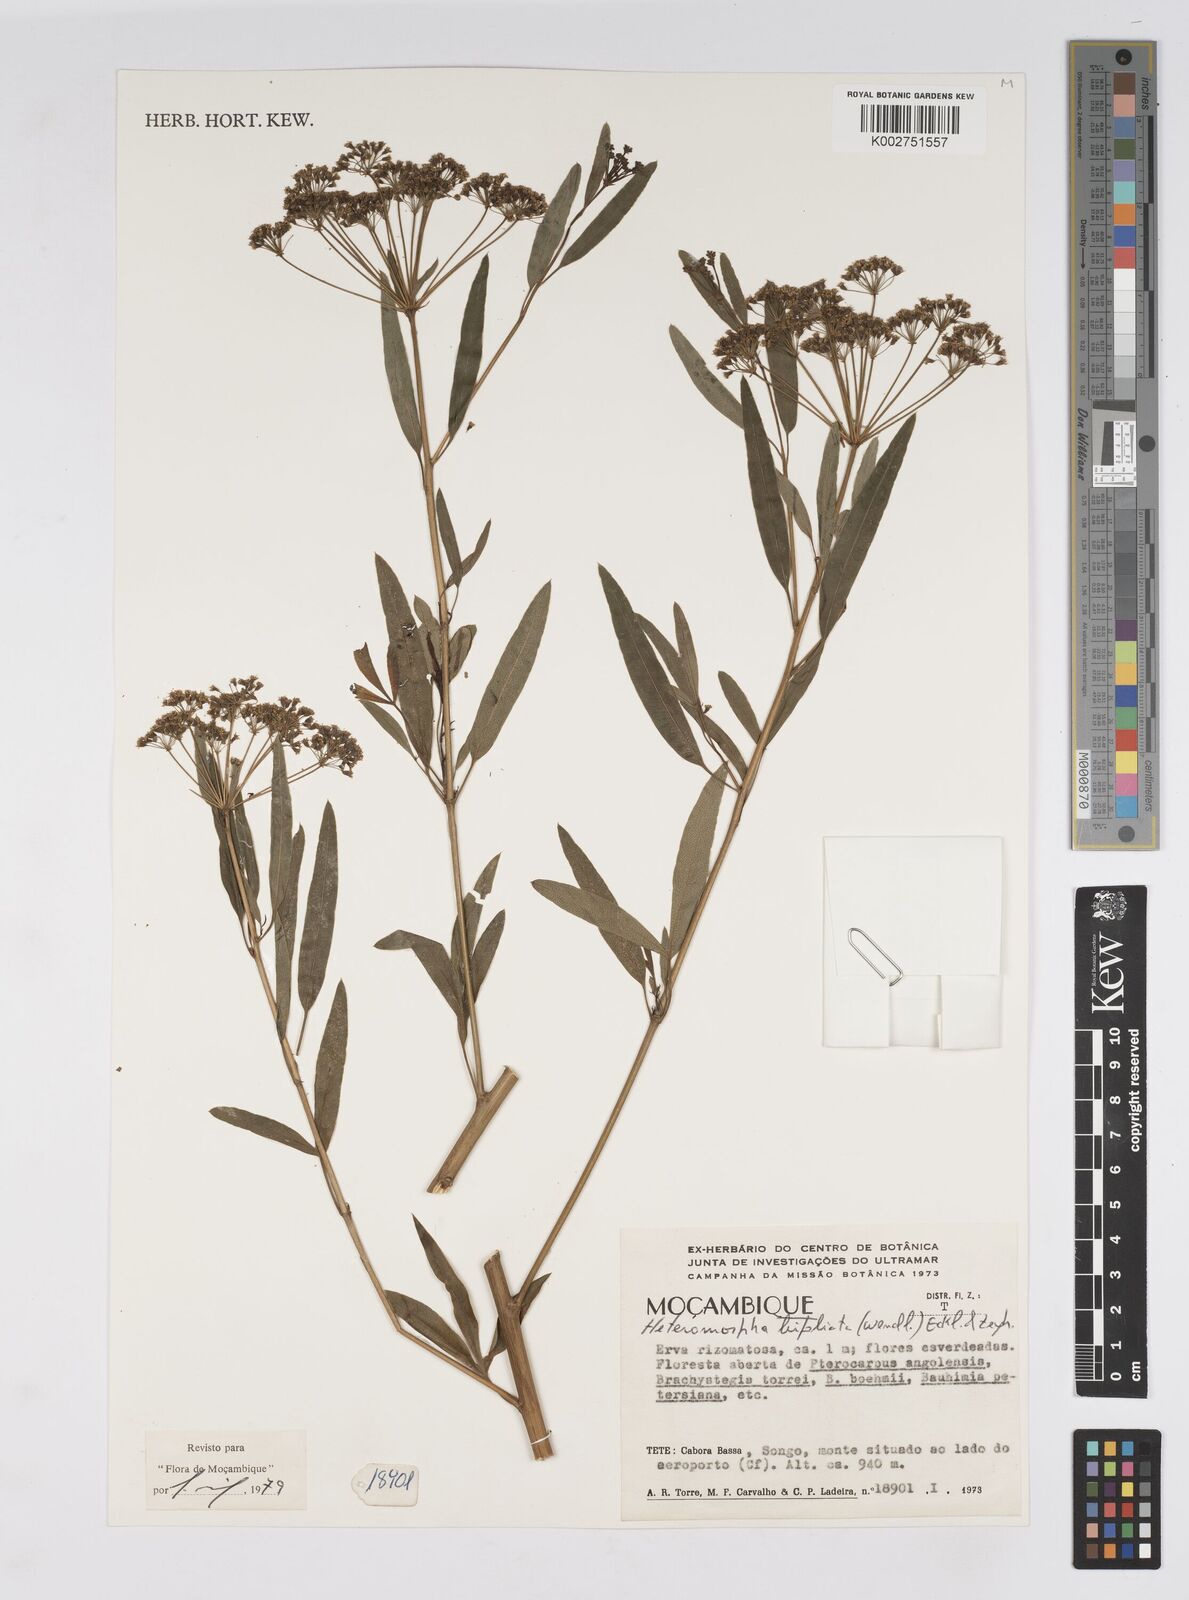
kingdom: Plantae
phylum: Tracheophyta
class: Magnoliopsida
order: Apiales
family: Apiaceae
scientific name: Apiaceae
